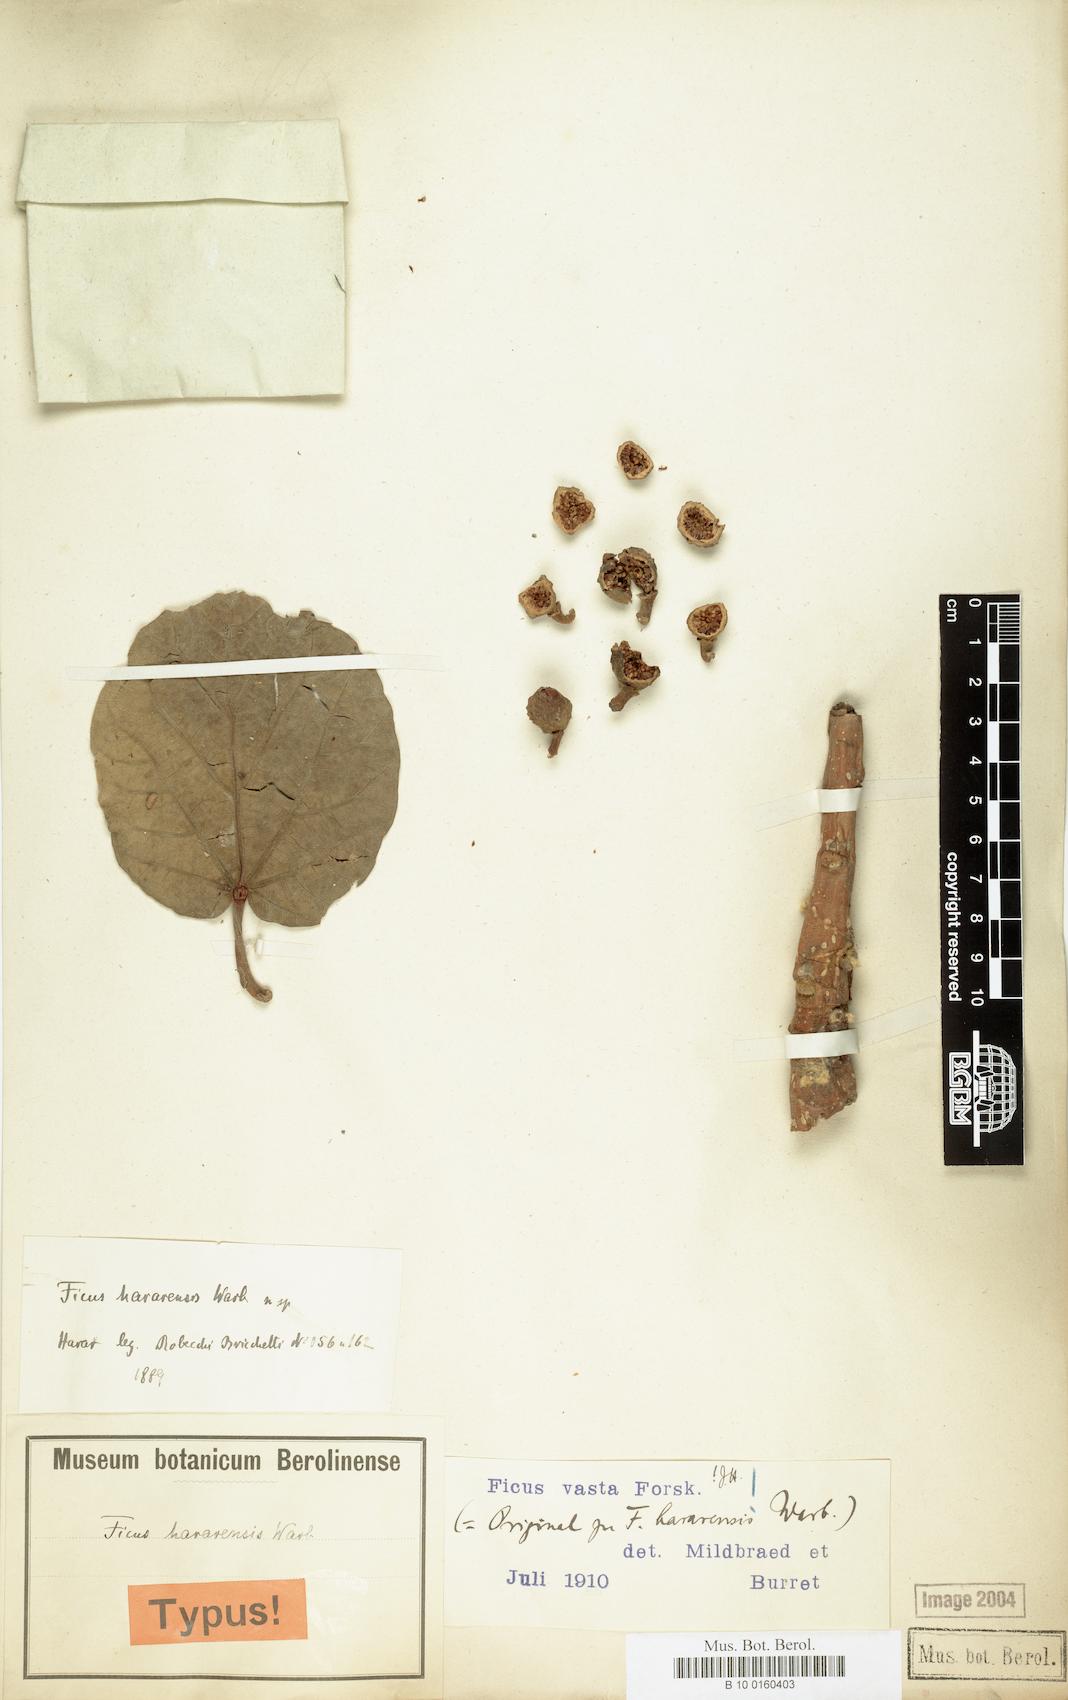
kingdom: Plantae
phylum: Tracheophyta
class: Magnoliopsida
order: Rosales
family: Moraceae
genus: Ficus
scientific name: Ficus vasta
